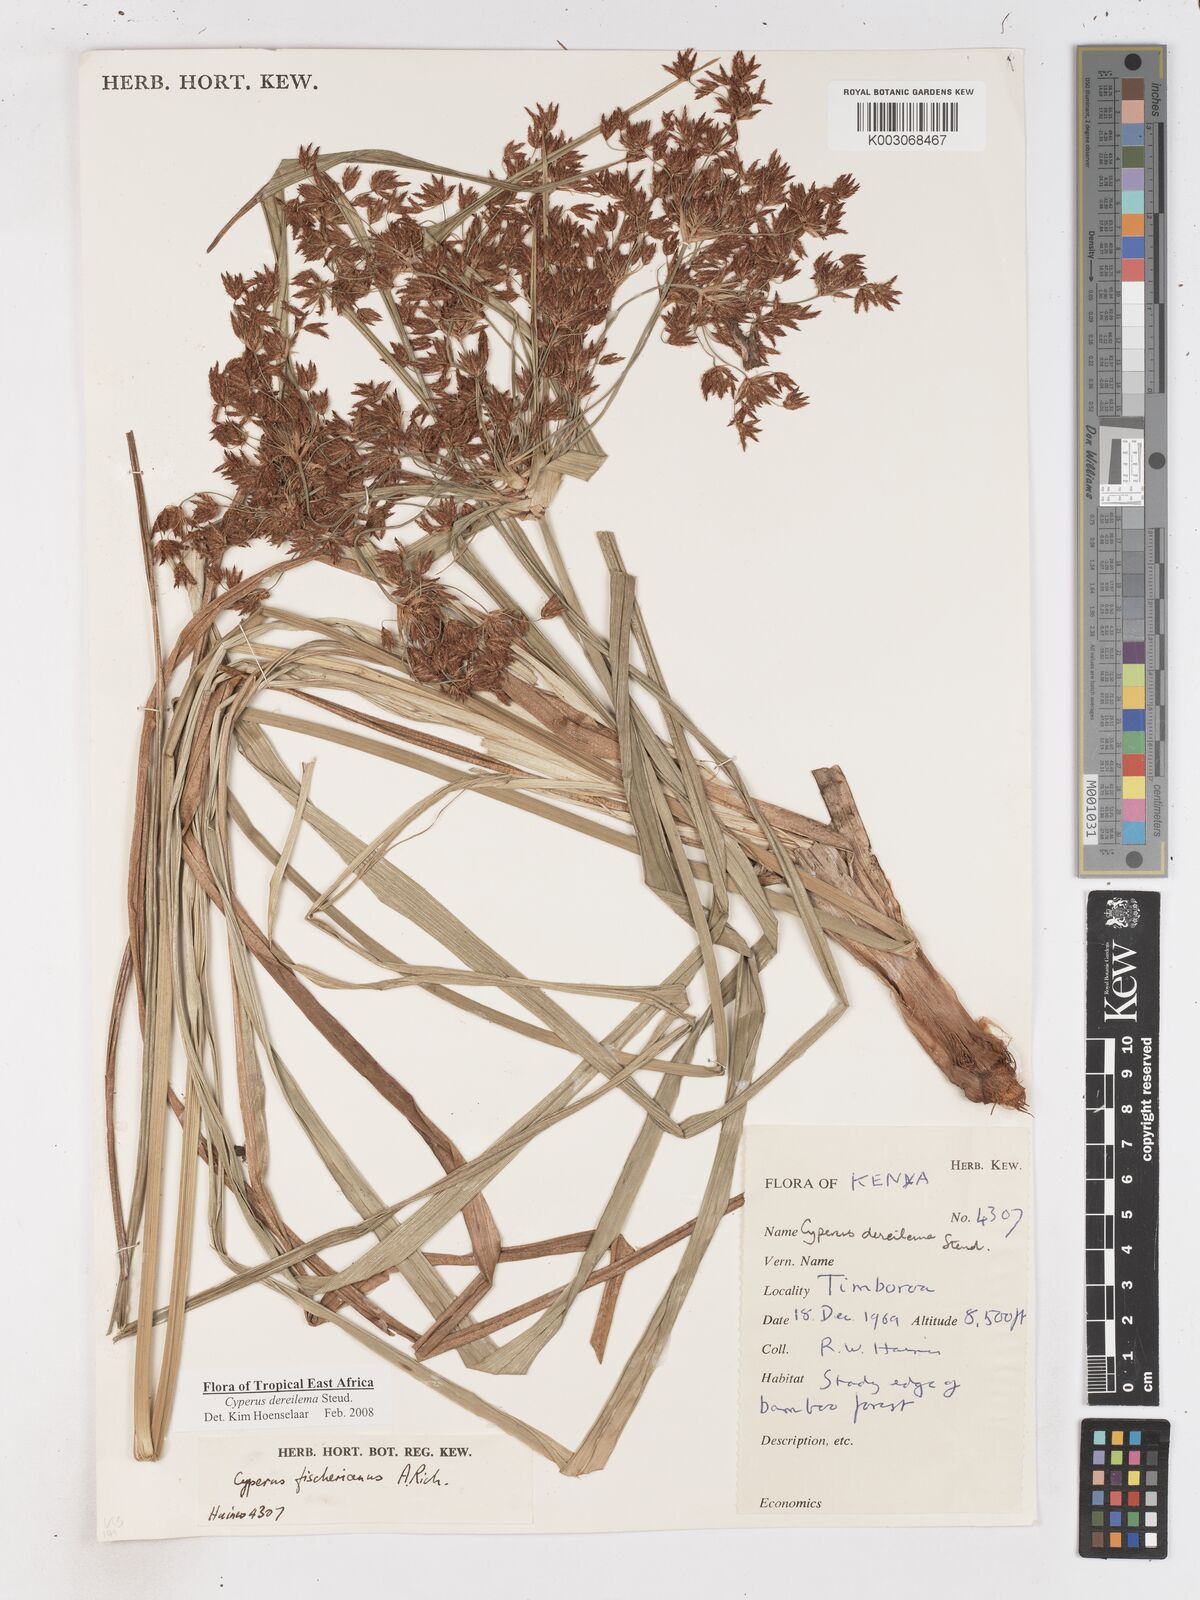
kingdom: Plantae
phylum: Tracheophyta
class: Liliopsida
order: Poales
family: Cyperaceae
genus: Cyperus
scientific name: Cyperus derreilema
